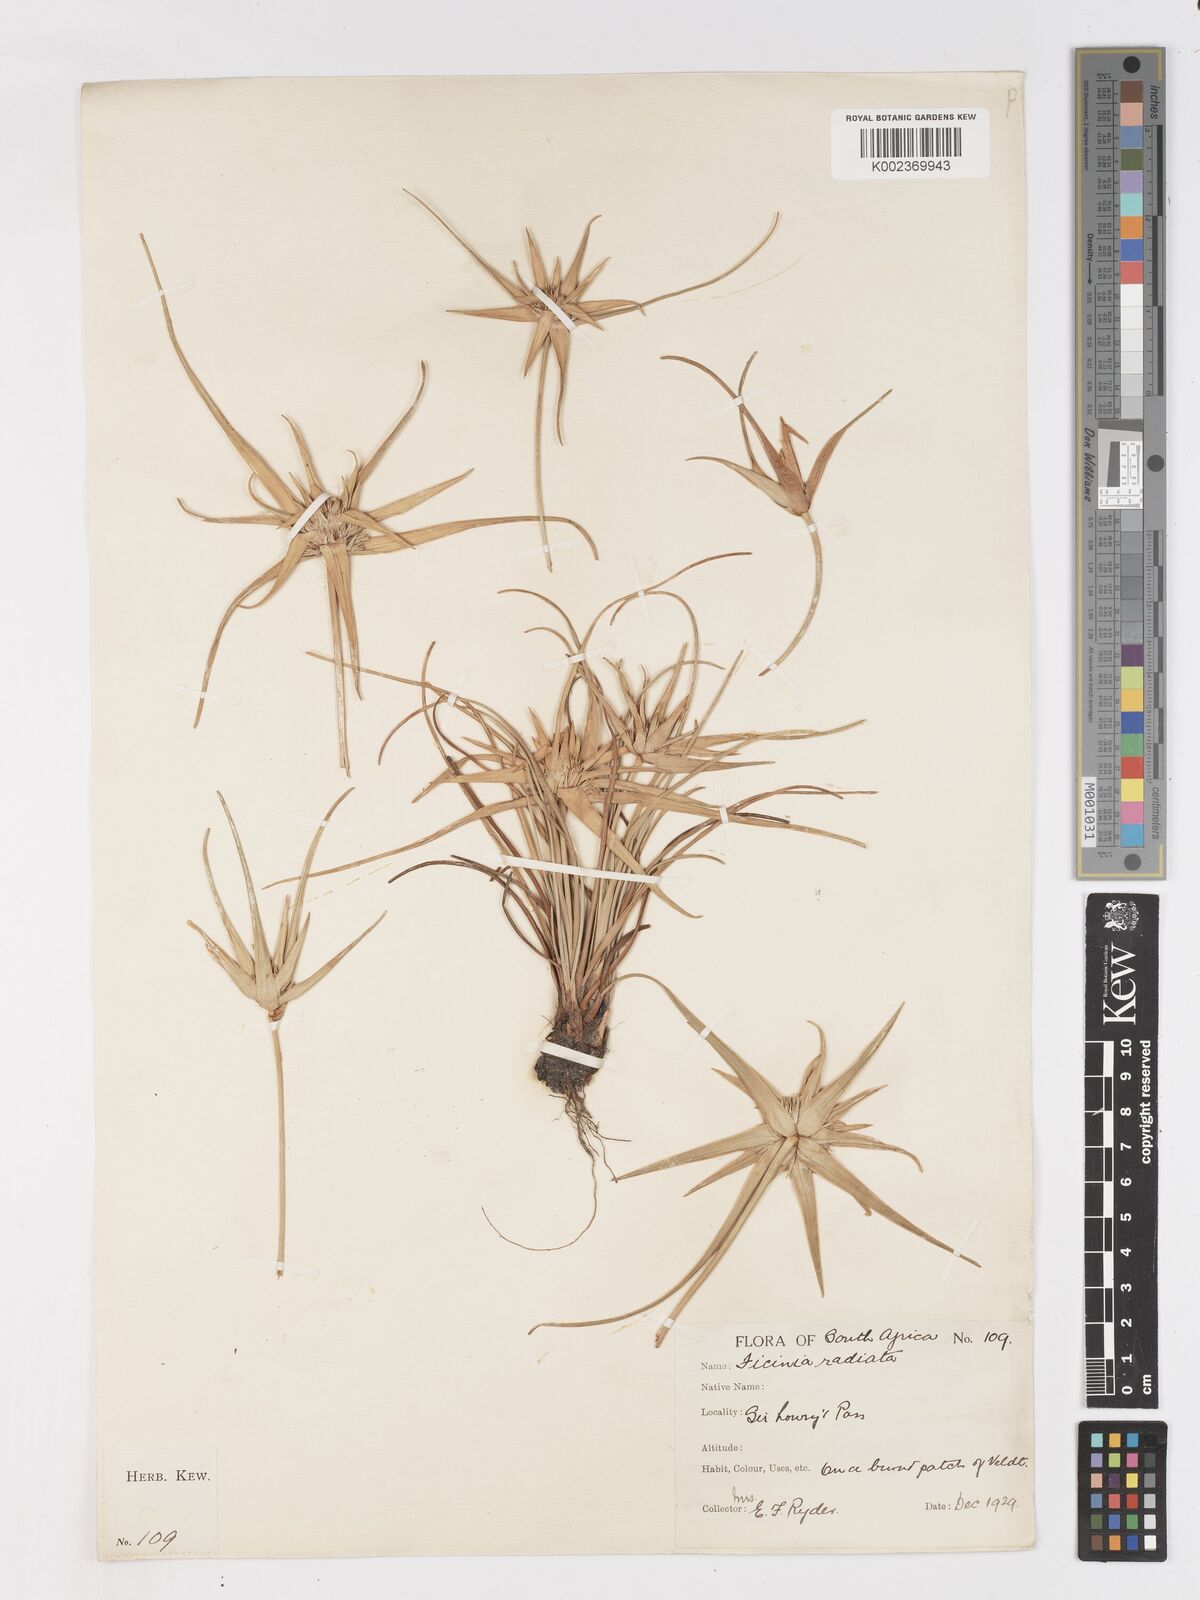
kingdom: Plantae
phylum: Tracheophyta
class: Liliopsida
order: Poales
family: Cyperaceae
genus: Ficinia
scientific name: Ficinia radiata
